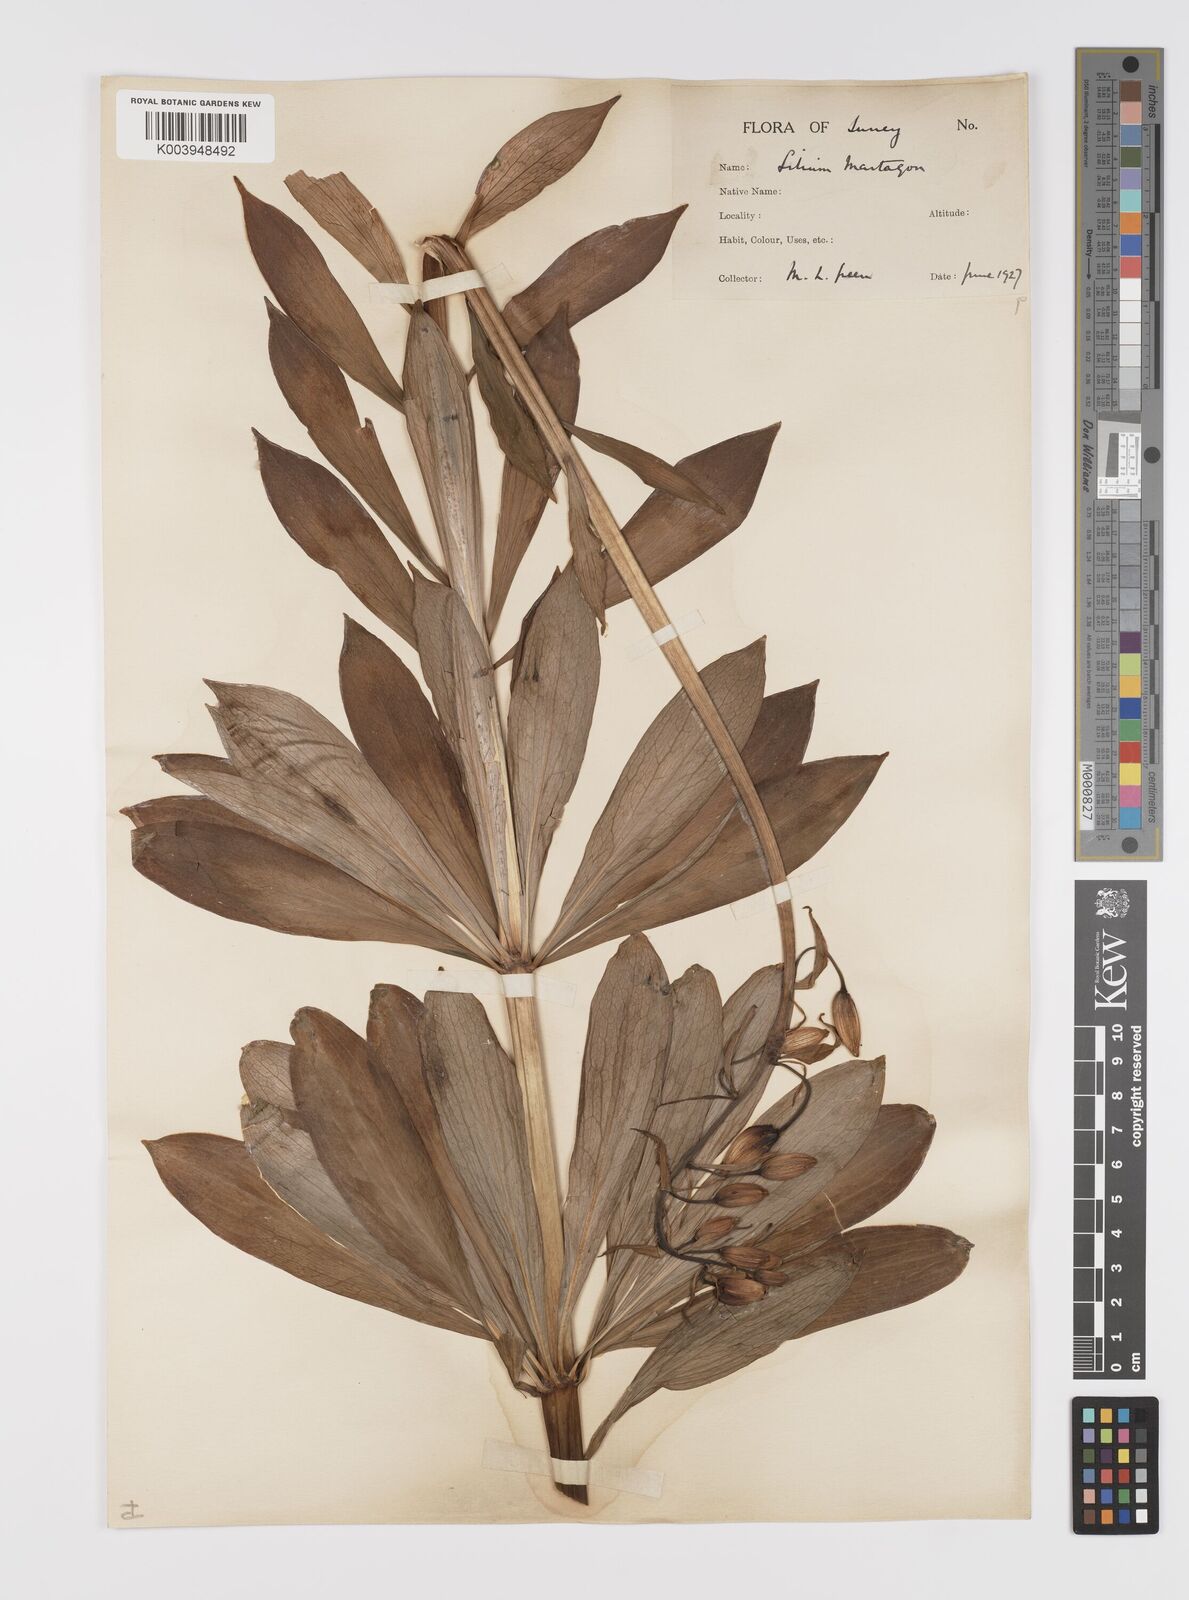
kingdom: Plantae
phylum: Tracheophyta
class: Liliopsida
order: Liliales
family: Liliaceae
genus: Lilium
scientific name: Lilium martagon
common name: Martagon lily
